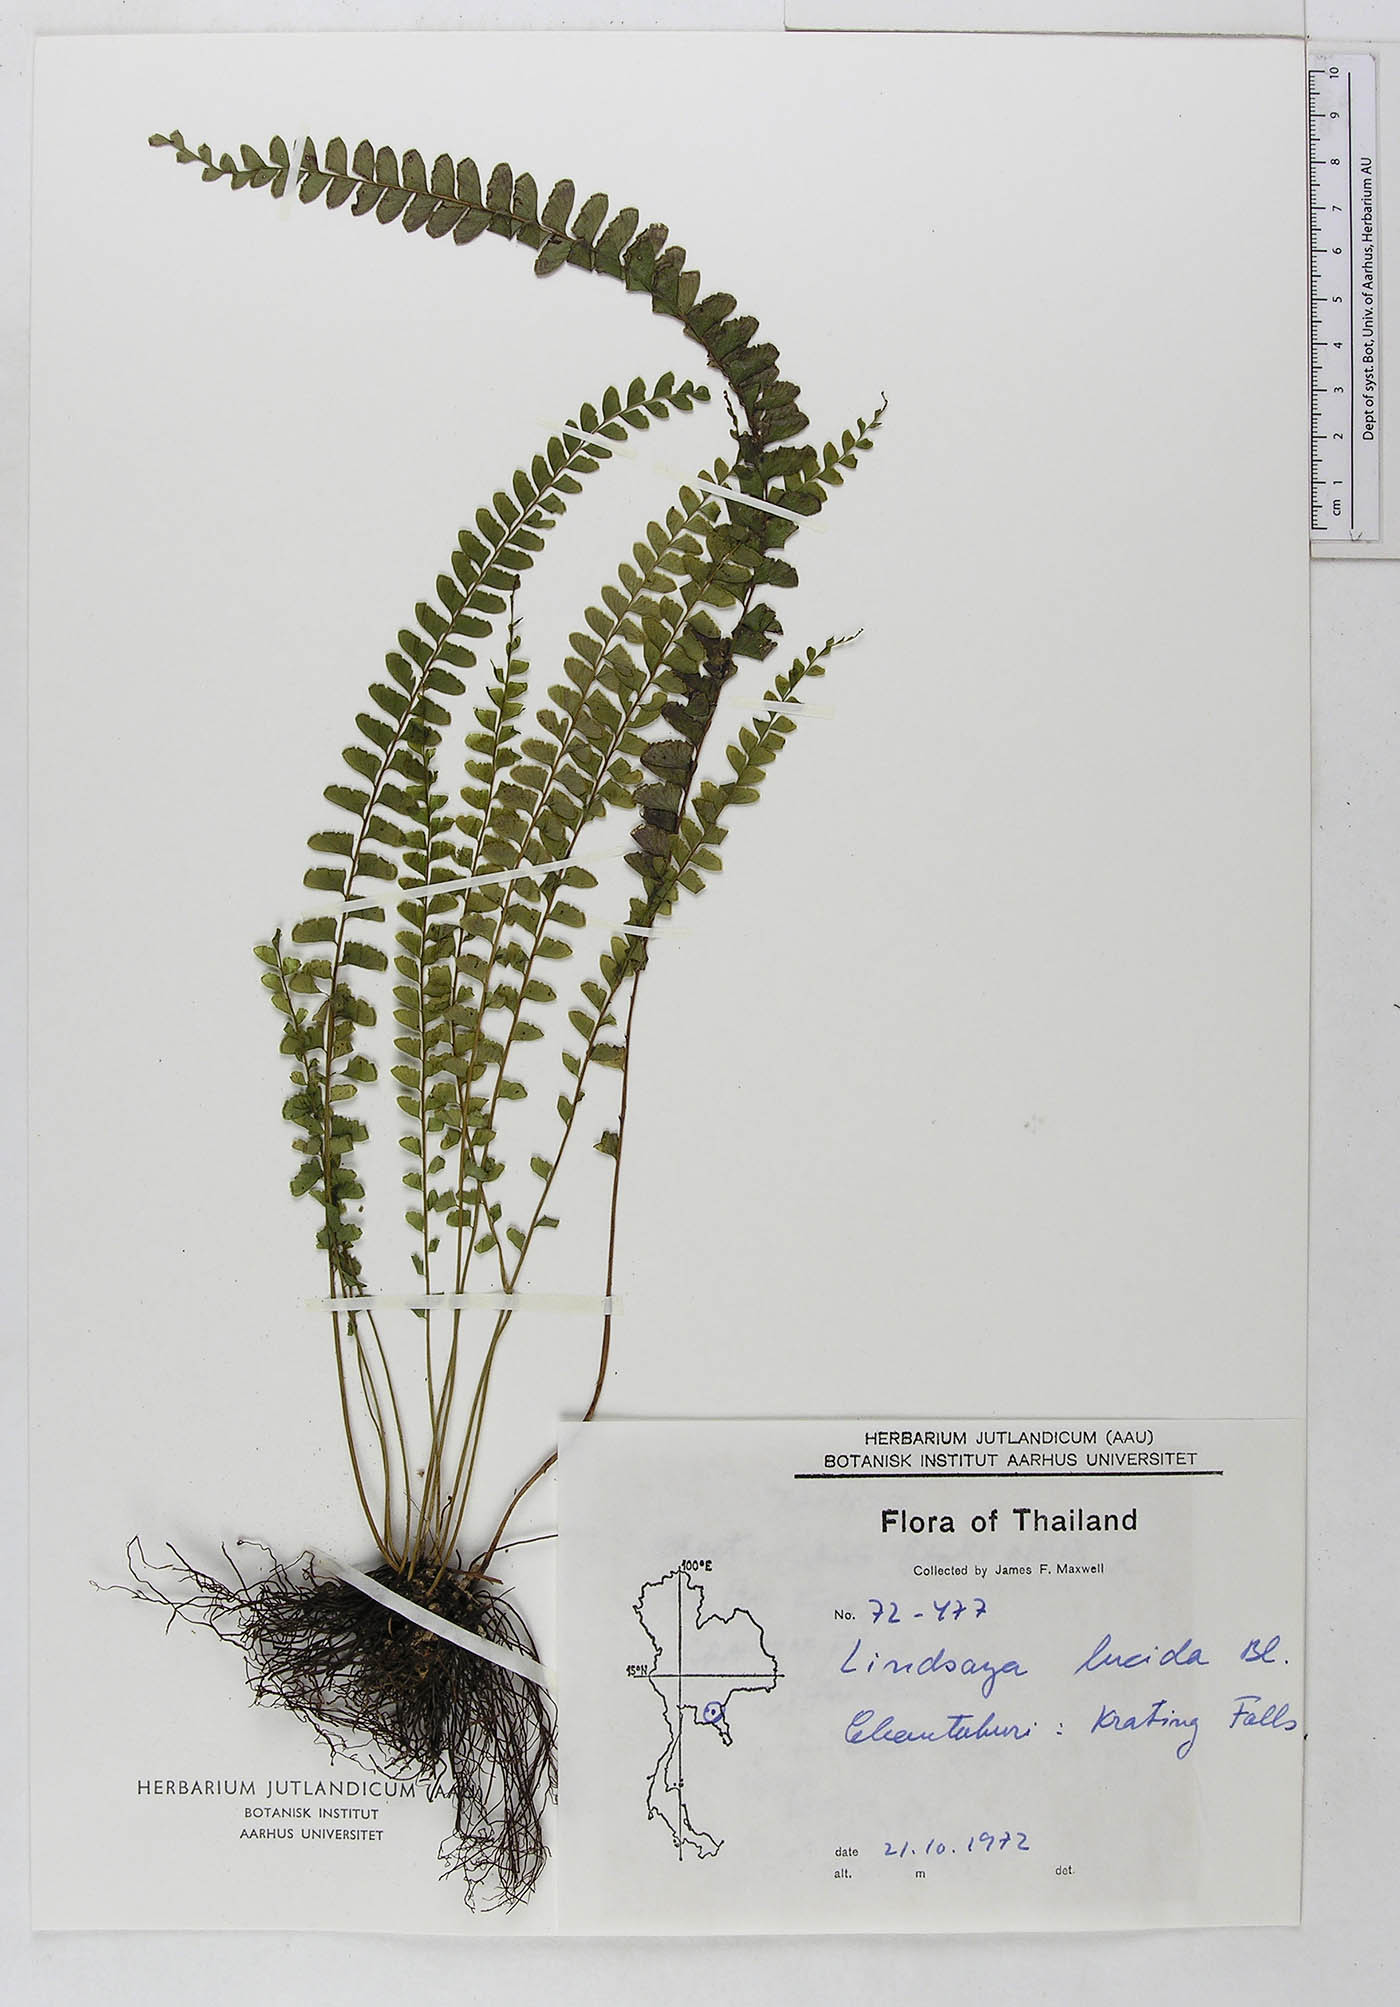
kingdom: Plantae
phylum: Tracheophyta
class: Polypodiopsida
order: Polypodiales
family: Lindsaeaceae
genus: Lindsaea
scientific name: Lindsaea lucida
